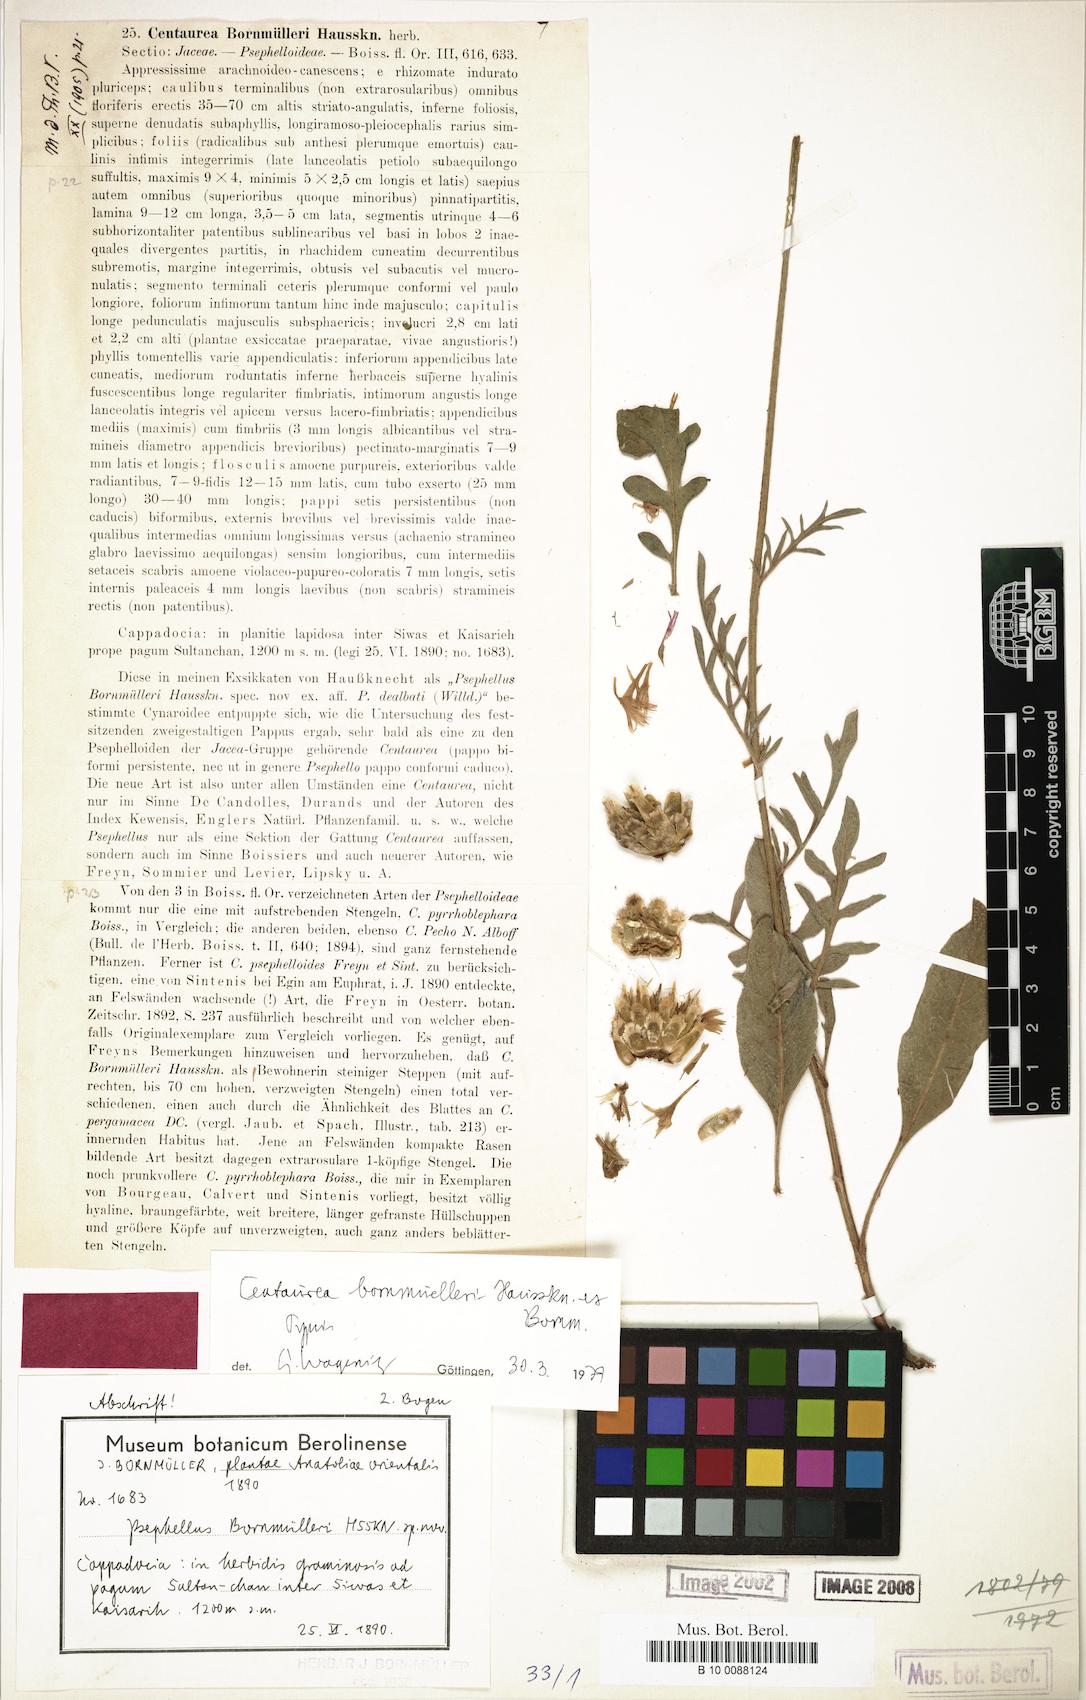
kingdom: Plantae
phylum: Tracheophyta
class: Magnoliopsida
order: Asterales
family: Asteraceae
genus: Psephellus
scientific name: Psephellus bornmuelleri
